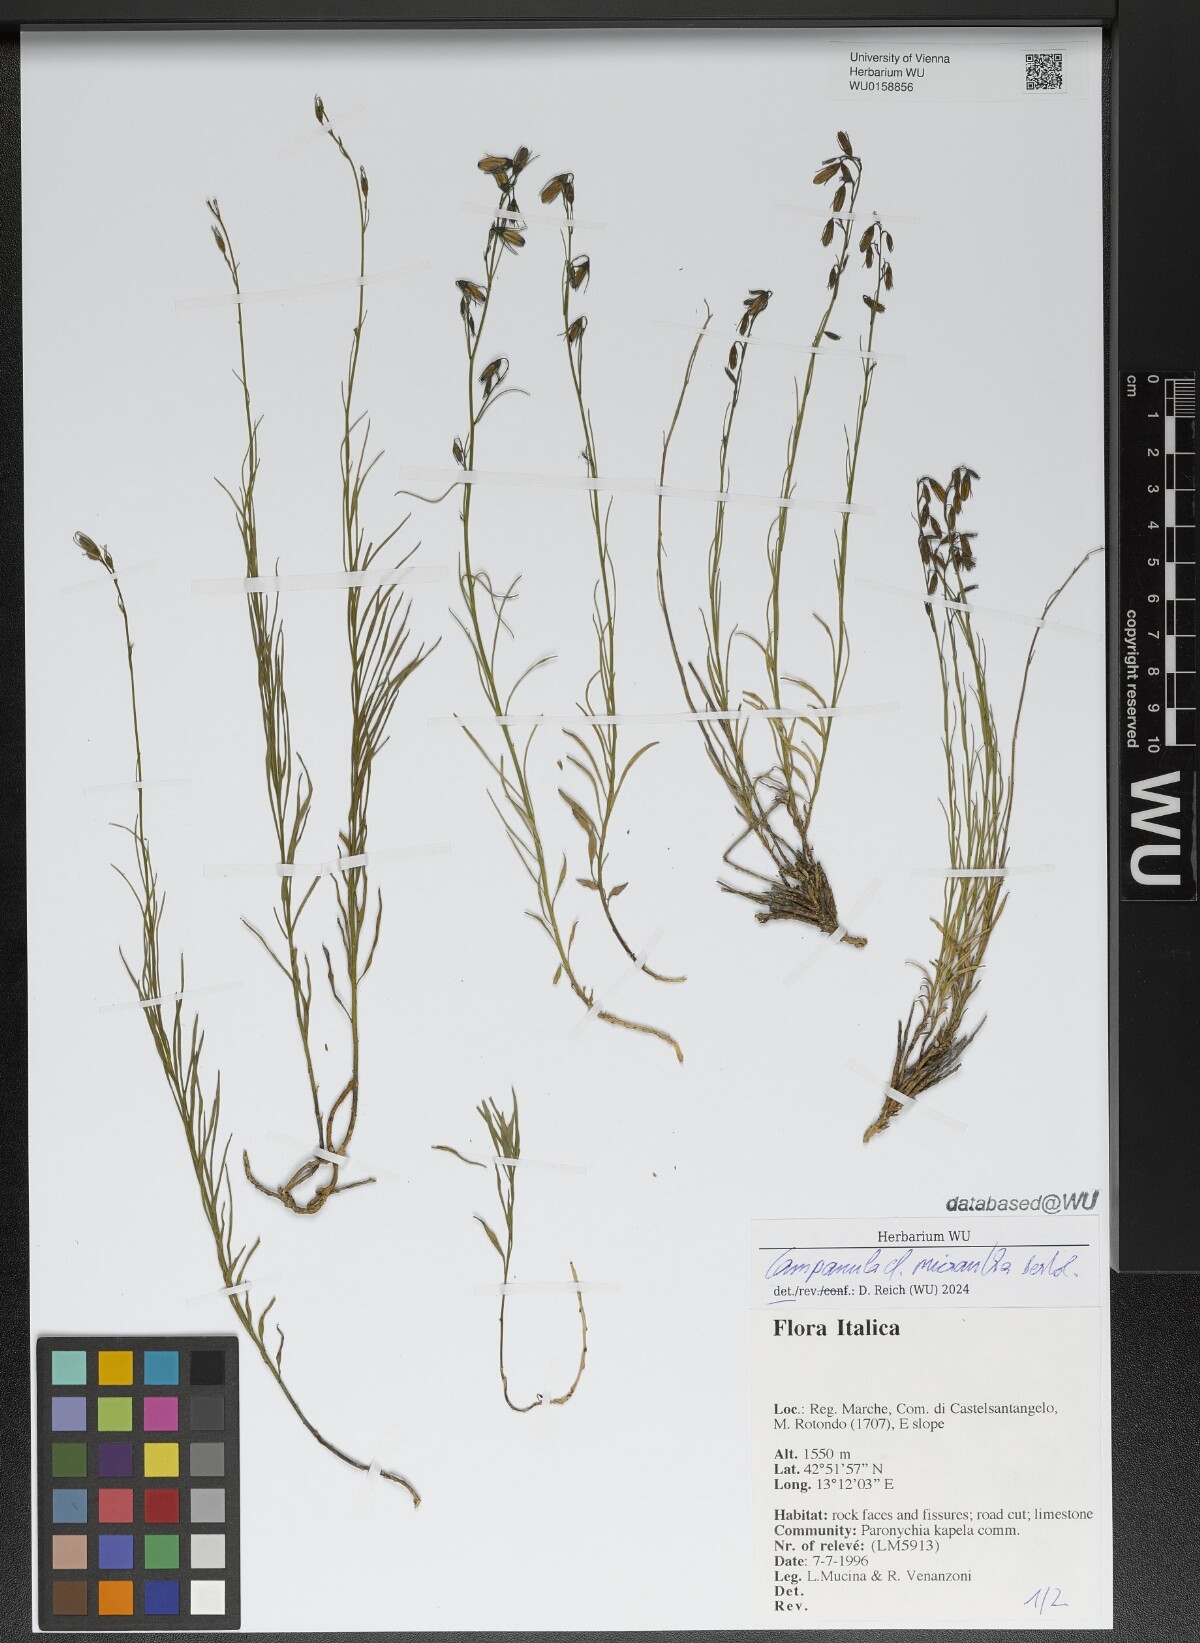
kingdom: Plantae
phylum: Tracheophyta
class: Magnoliopsida
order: Asterales
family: Campanulaceae
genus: Campanula
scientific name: Campanula micrantha
